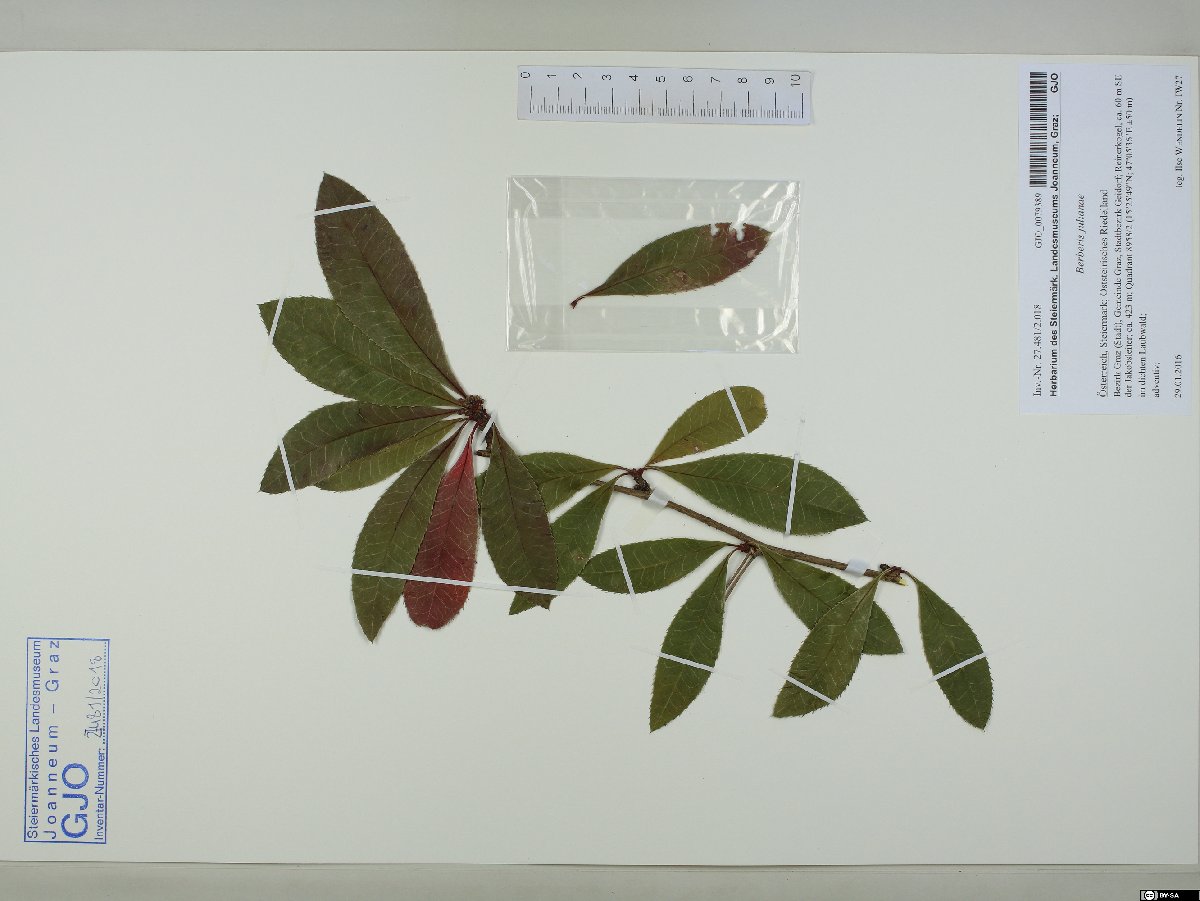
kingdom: Plantae
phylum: Tracheophyta
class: Magnoliopsida
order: Ranunculales
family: Berberidaceae
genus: Berberis
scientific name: Berberis julianae
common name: Wintergreen barberry
